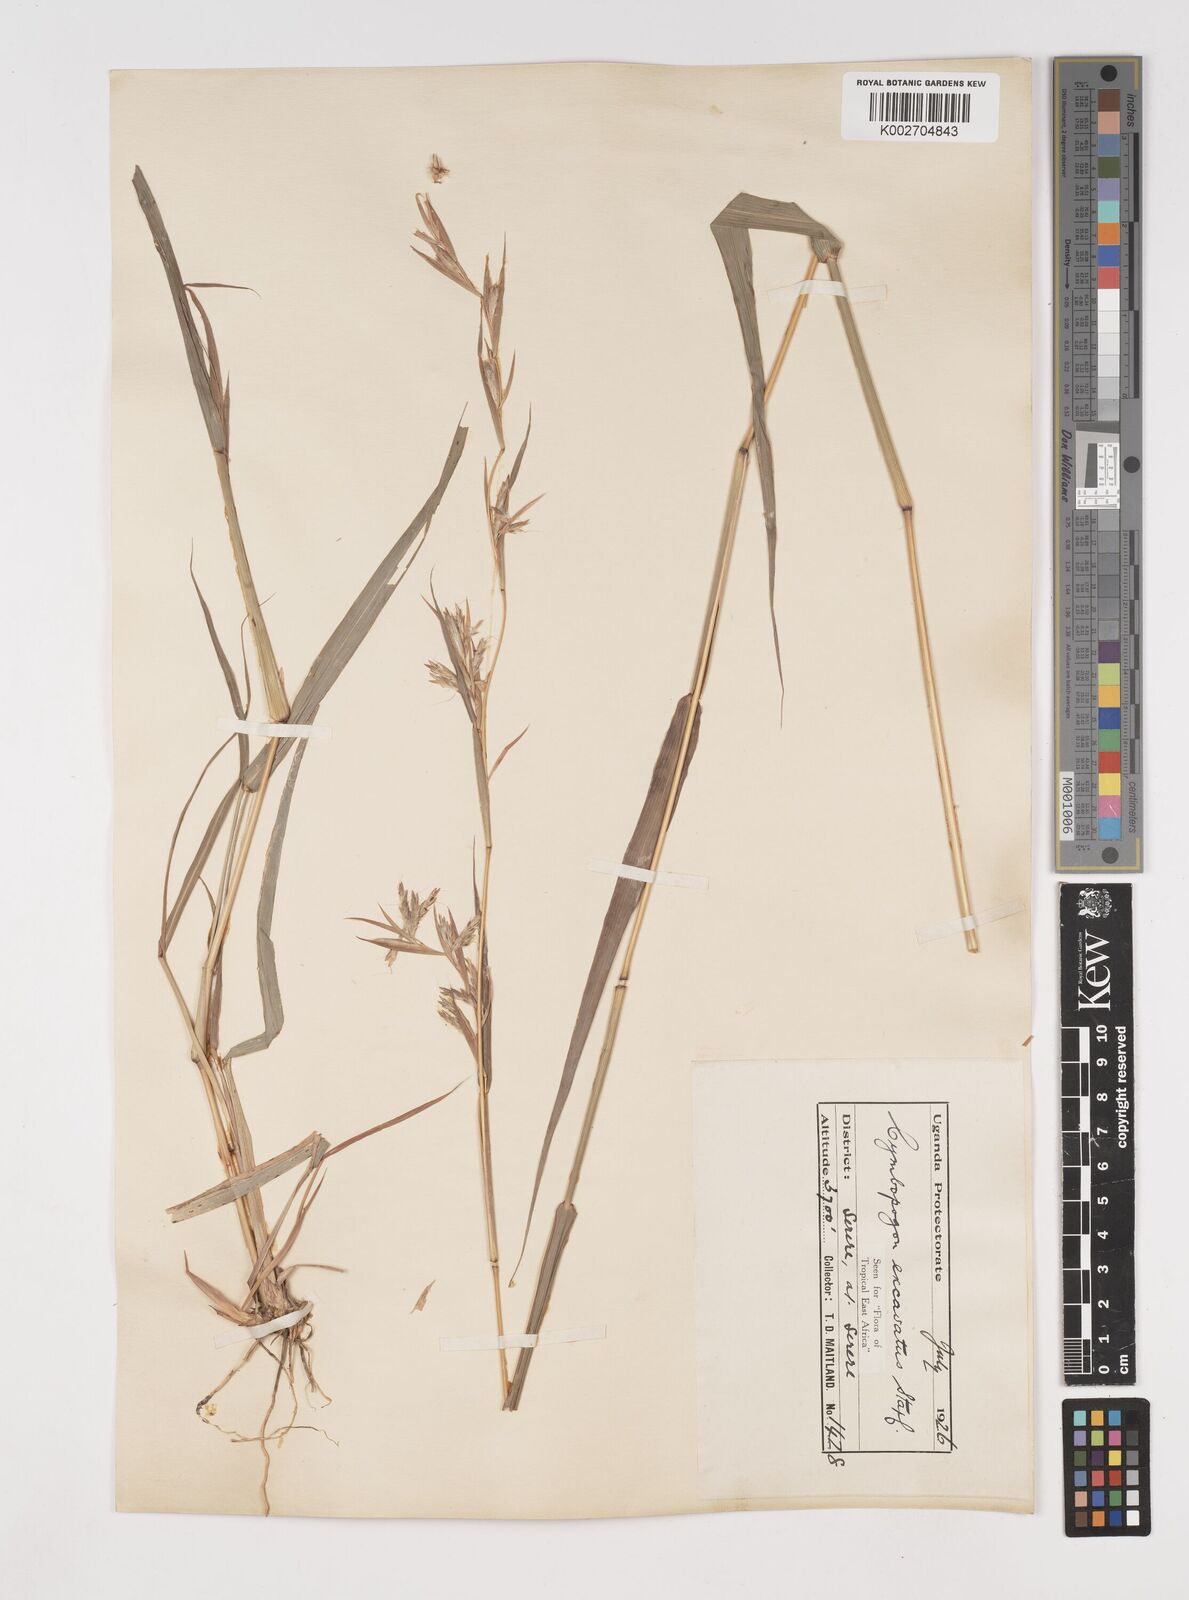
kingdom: Plantae
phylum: Tracheophyta
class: Liliopsida
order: Poales
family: Poaceae
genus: Cymbopogon
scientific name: Cymbopogon caesius
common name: Kachi grass
